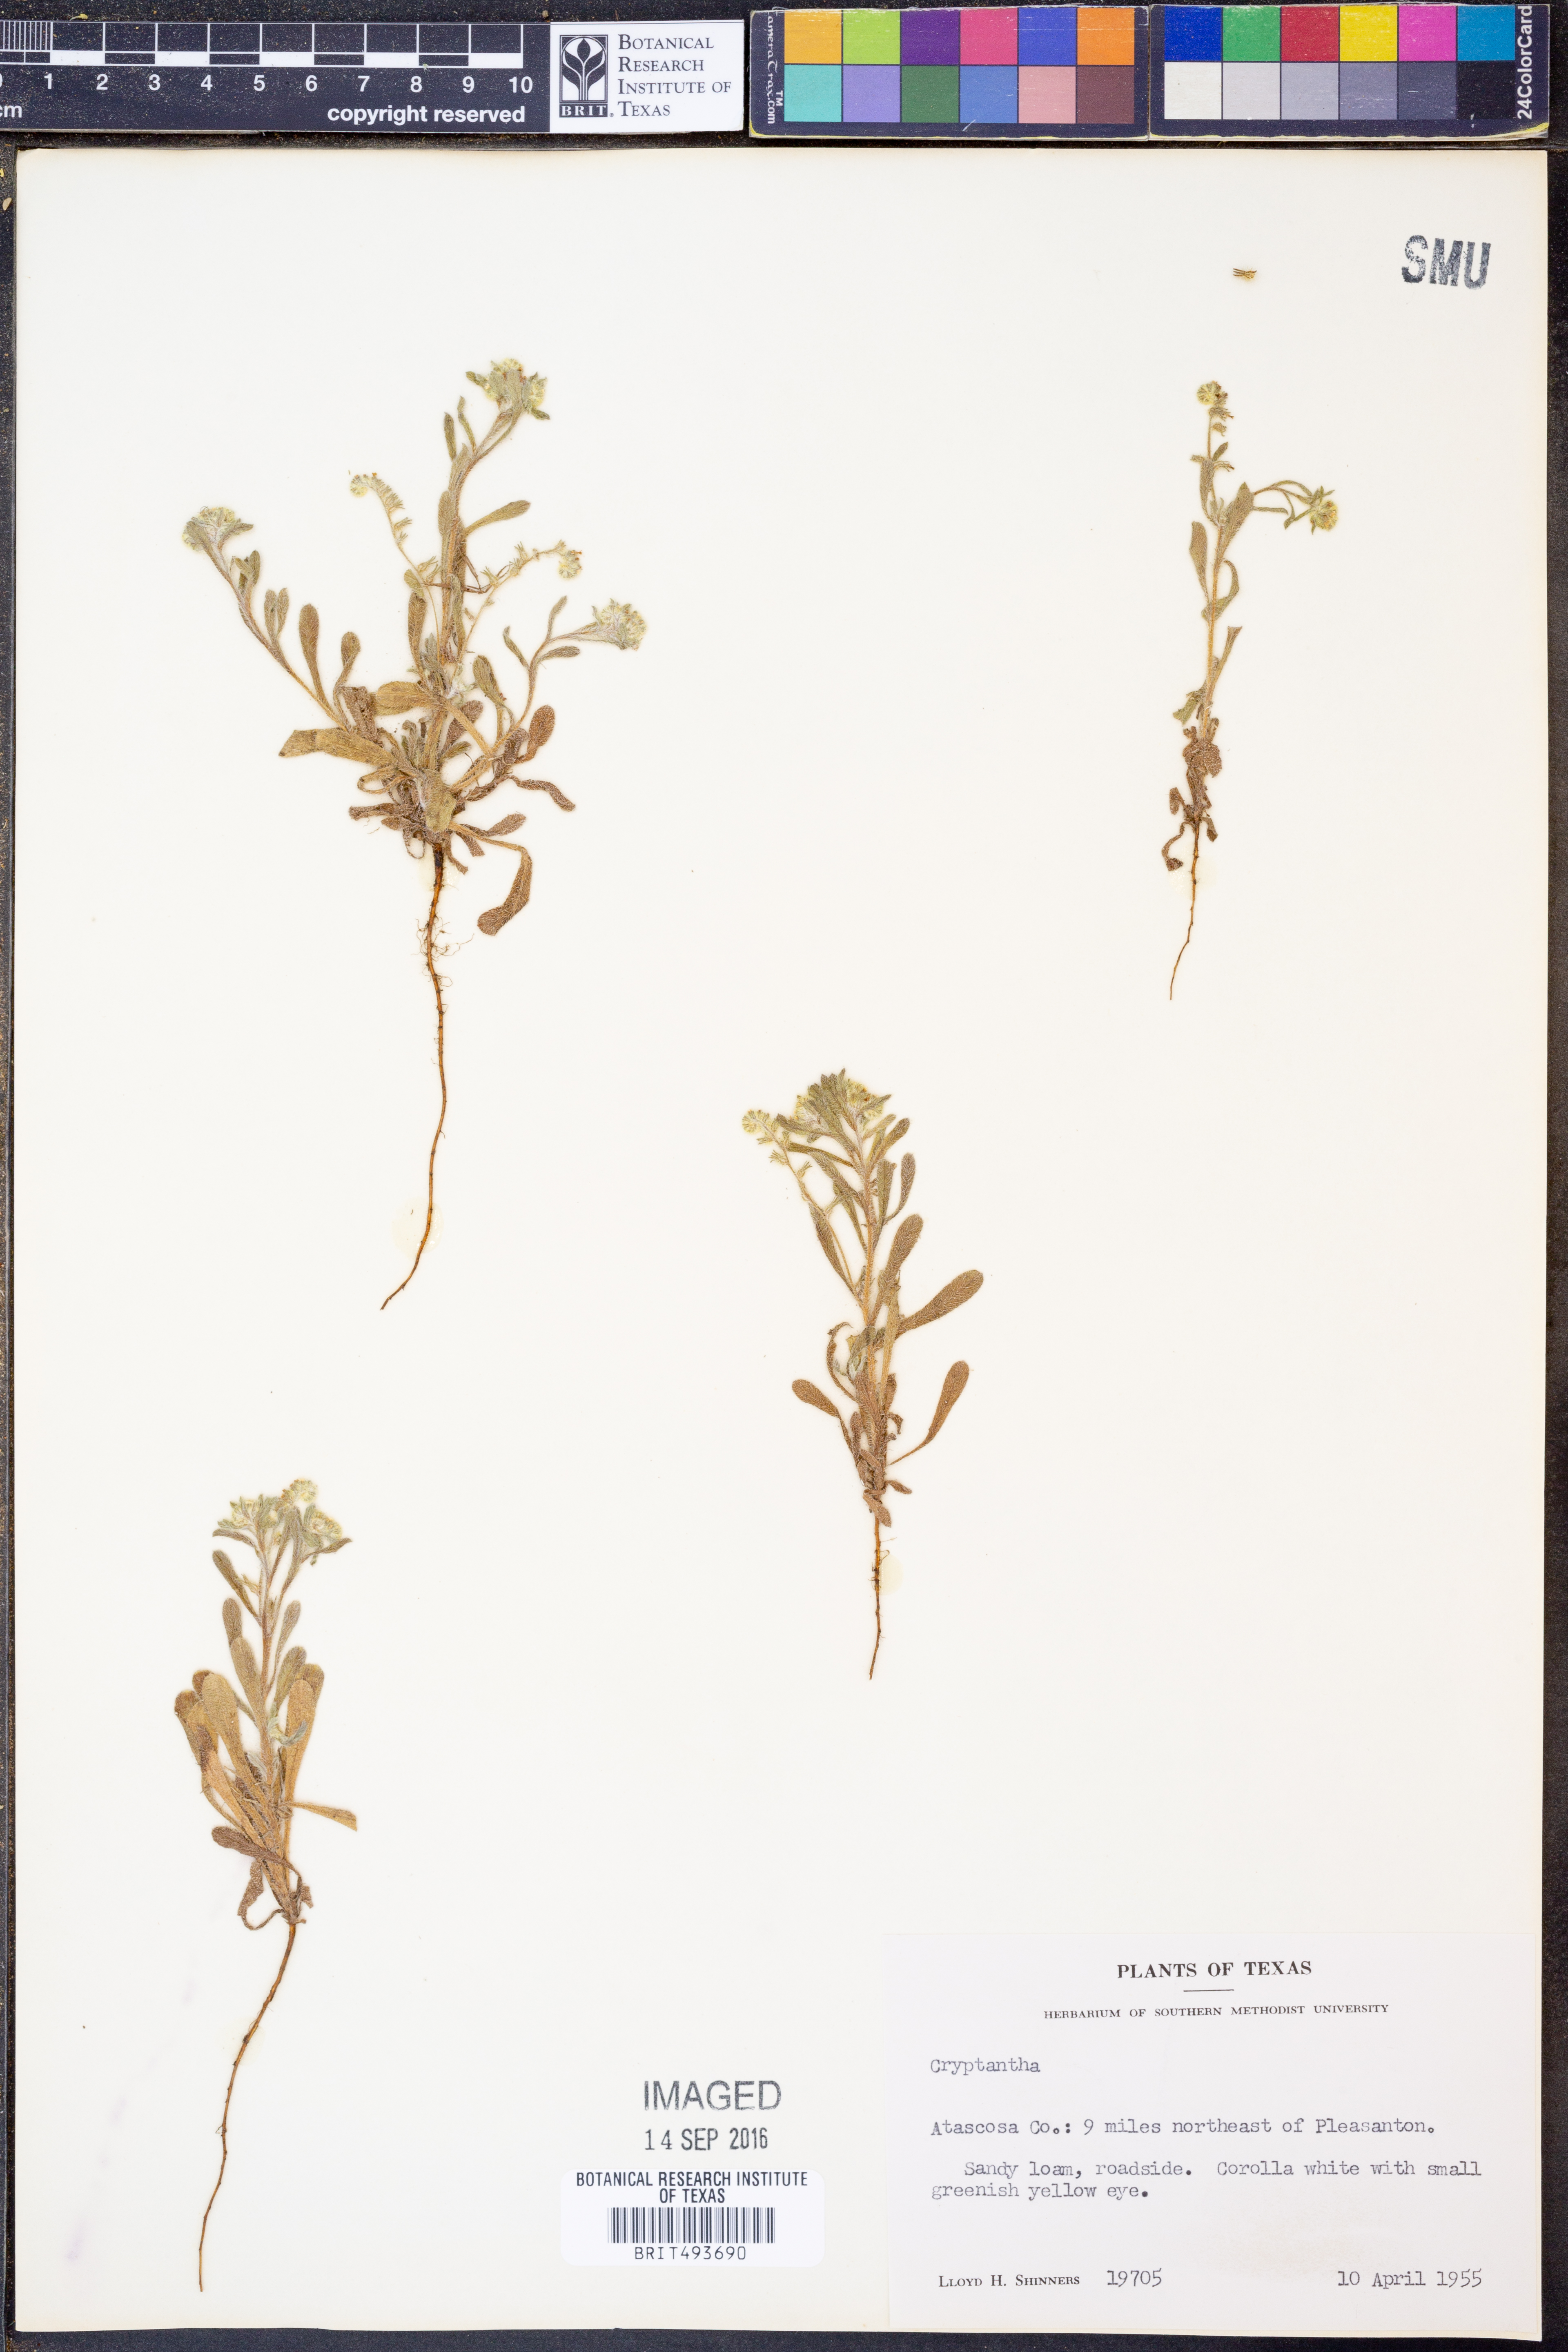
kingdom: Plantae
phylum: Tracheophyta
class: Magnoliopsida
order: Boraginales
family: Boraginaceae
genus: Cryptantha
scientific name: Cryptantha
